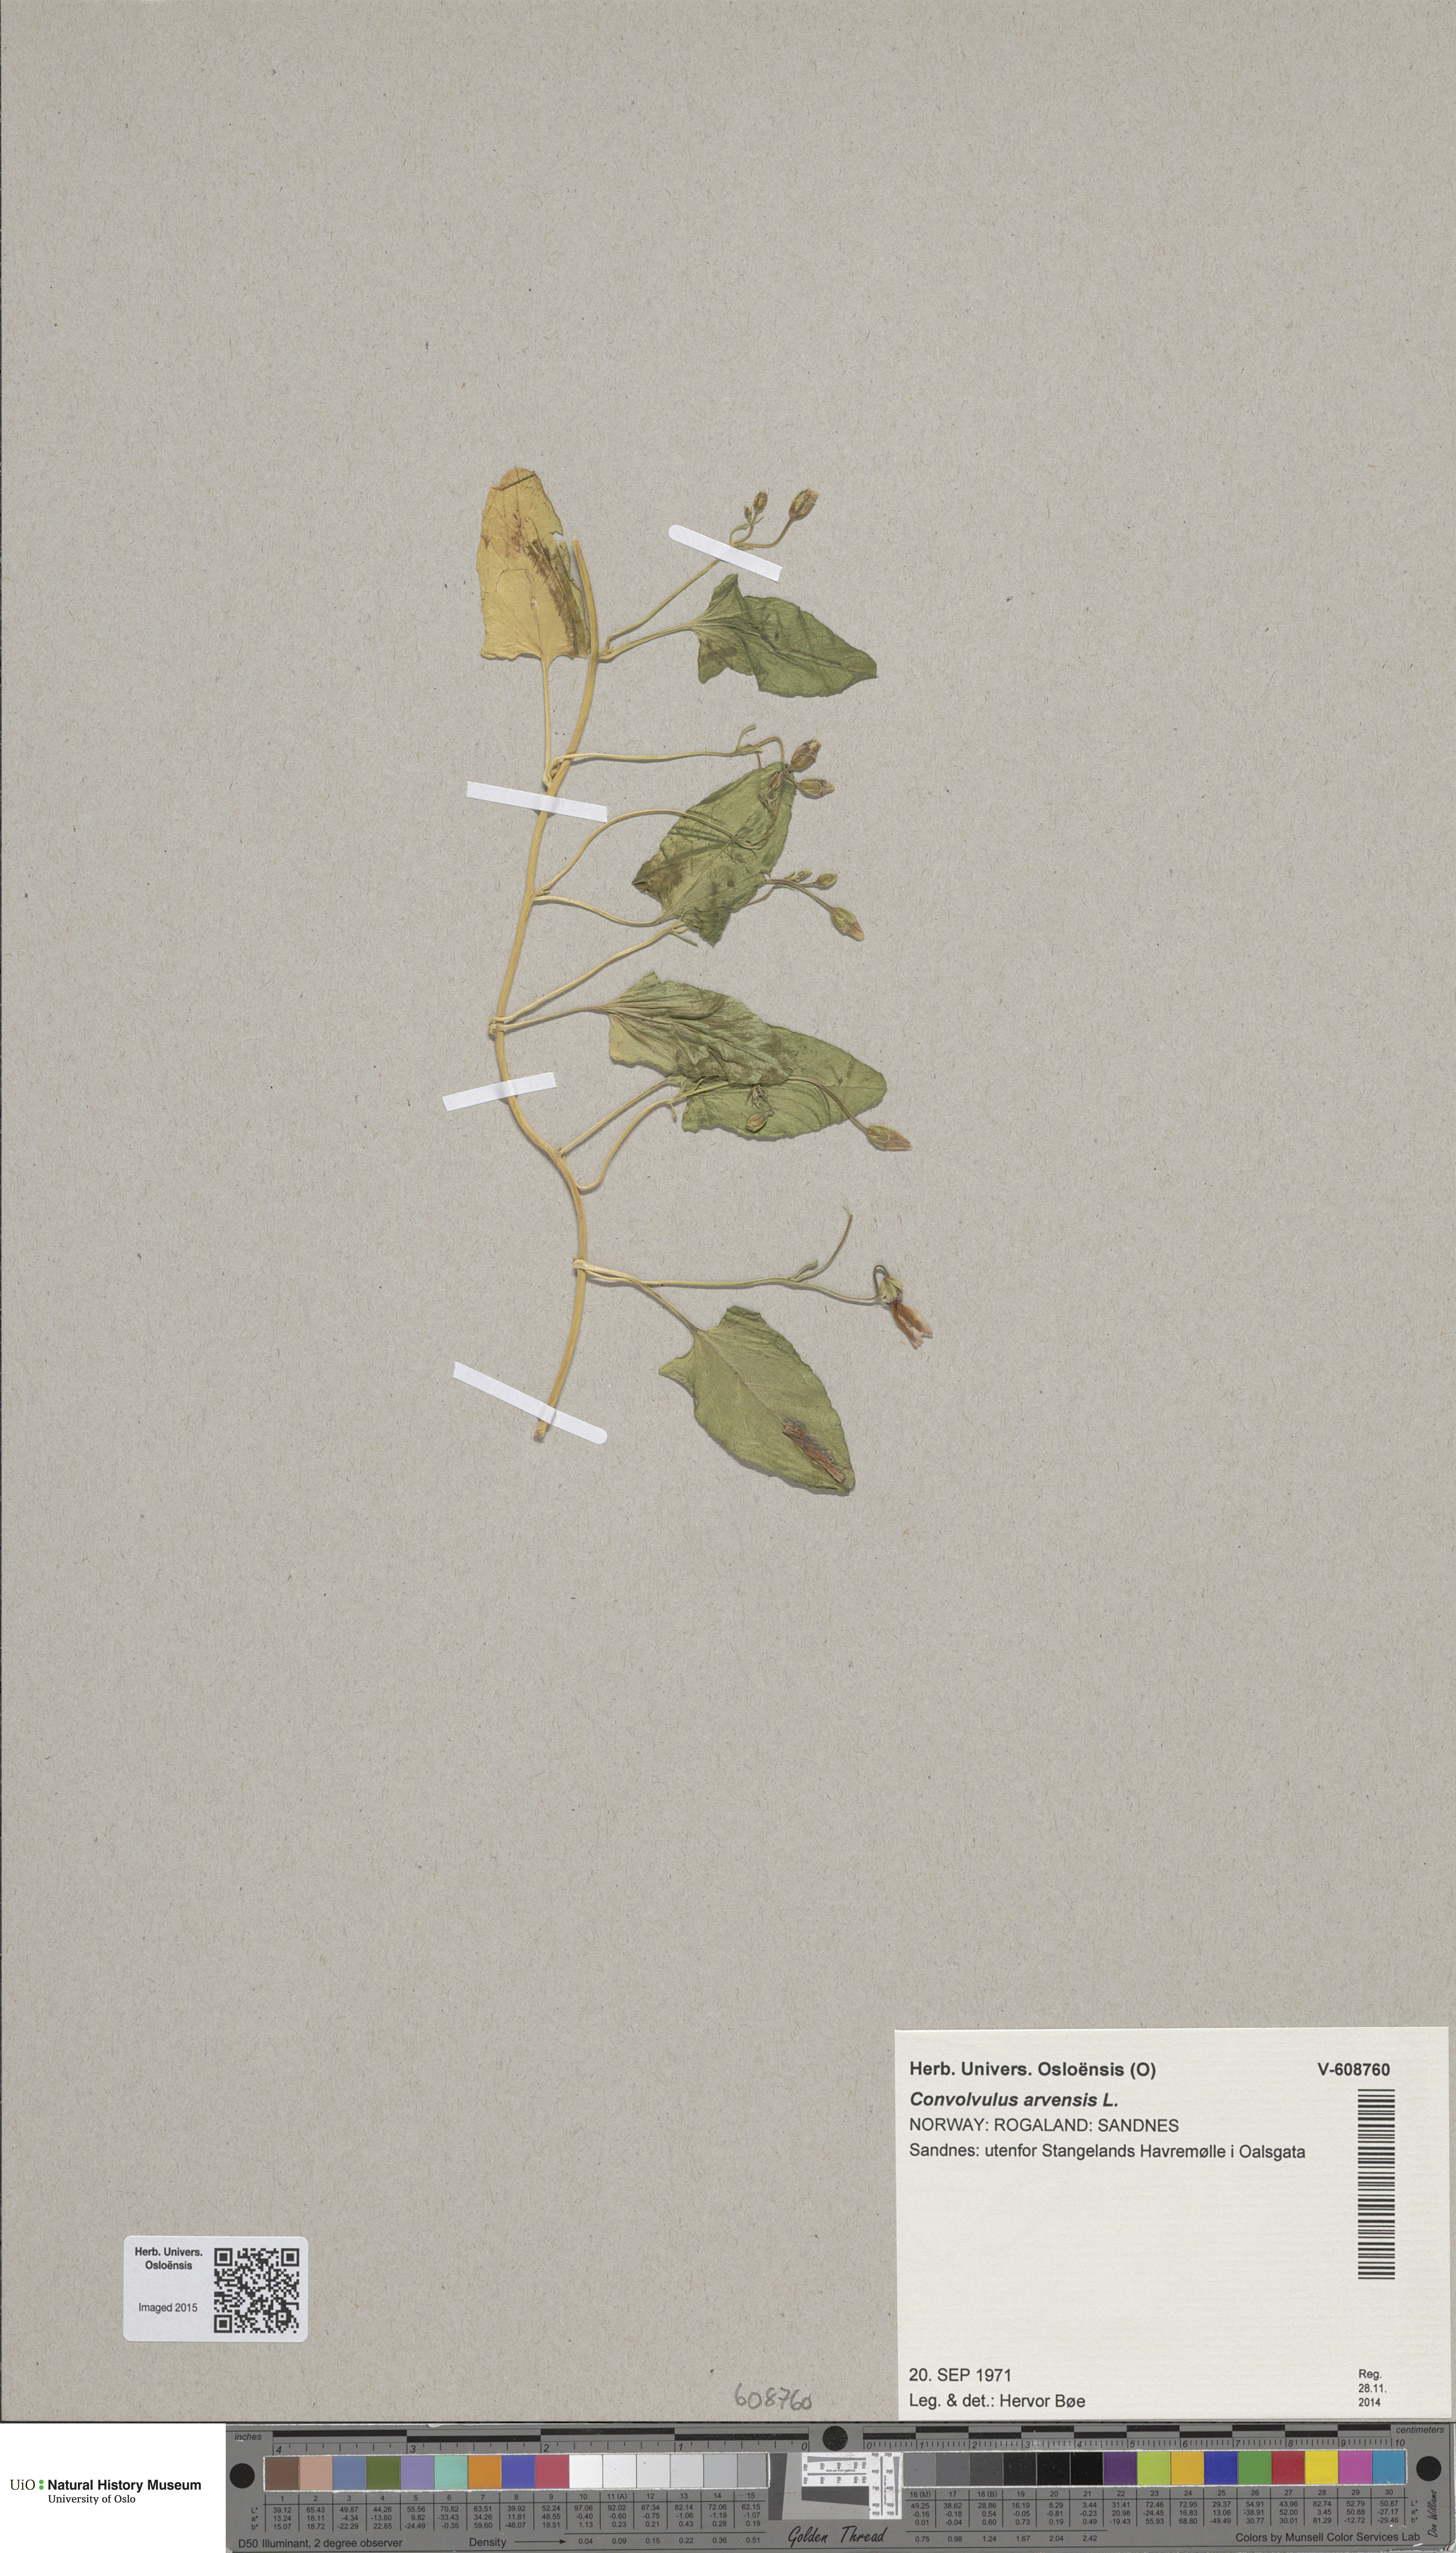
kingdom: Plantae
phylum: Tracheophyta
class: Magnoliopsida
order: Solanales
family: Convolvulaceae
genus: Convolvulus
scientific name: Convolvulus arvensis
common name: Field bindweed
